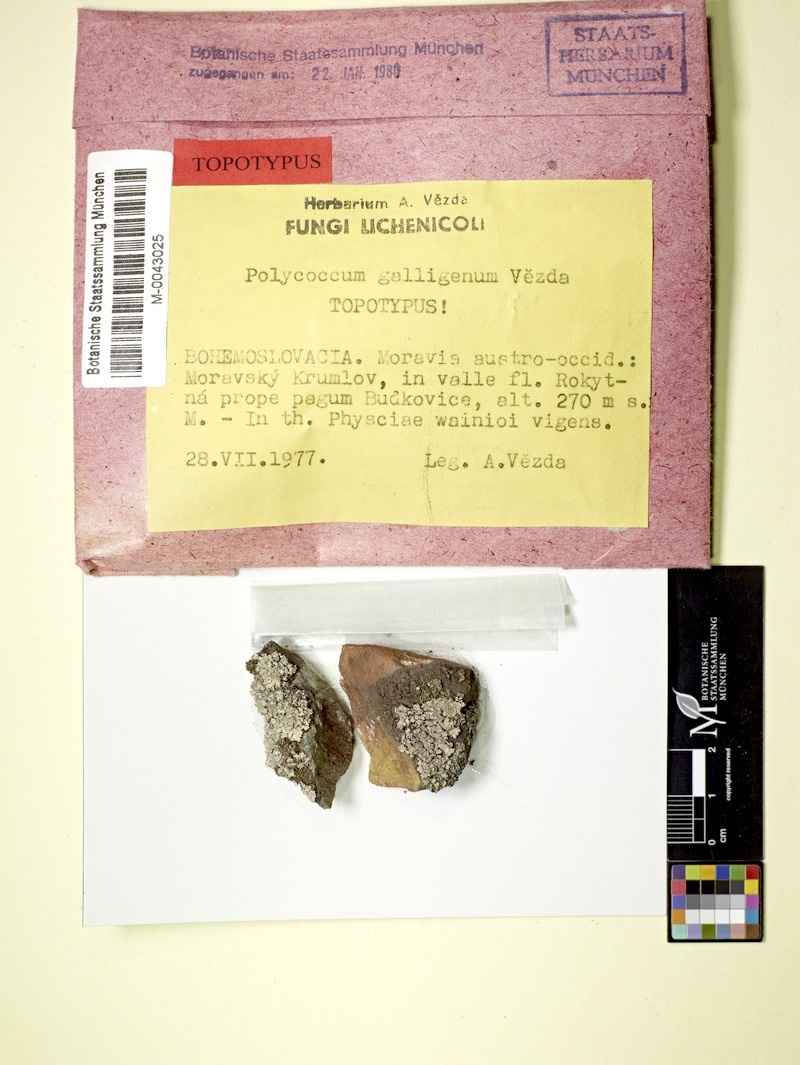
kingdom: Fungi
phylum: Ascomycota
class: Dothideomycetes
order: Trypetheliales
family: Polycoccaceae
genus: Polycoccum
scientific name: Polycoccum pulvinatum
